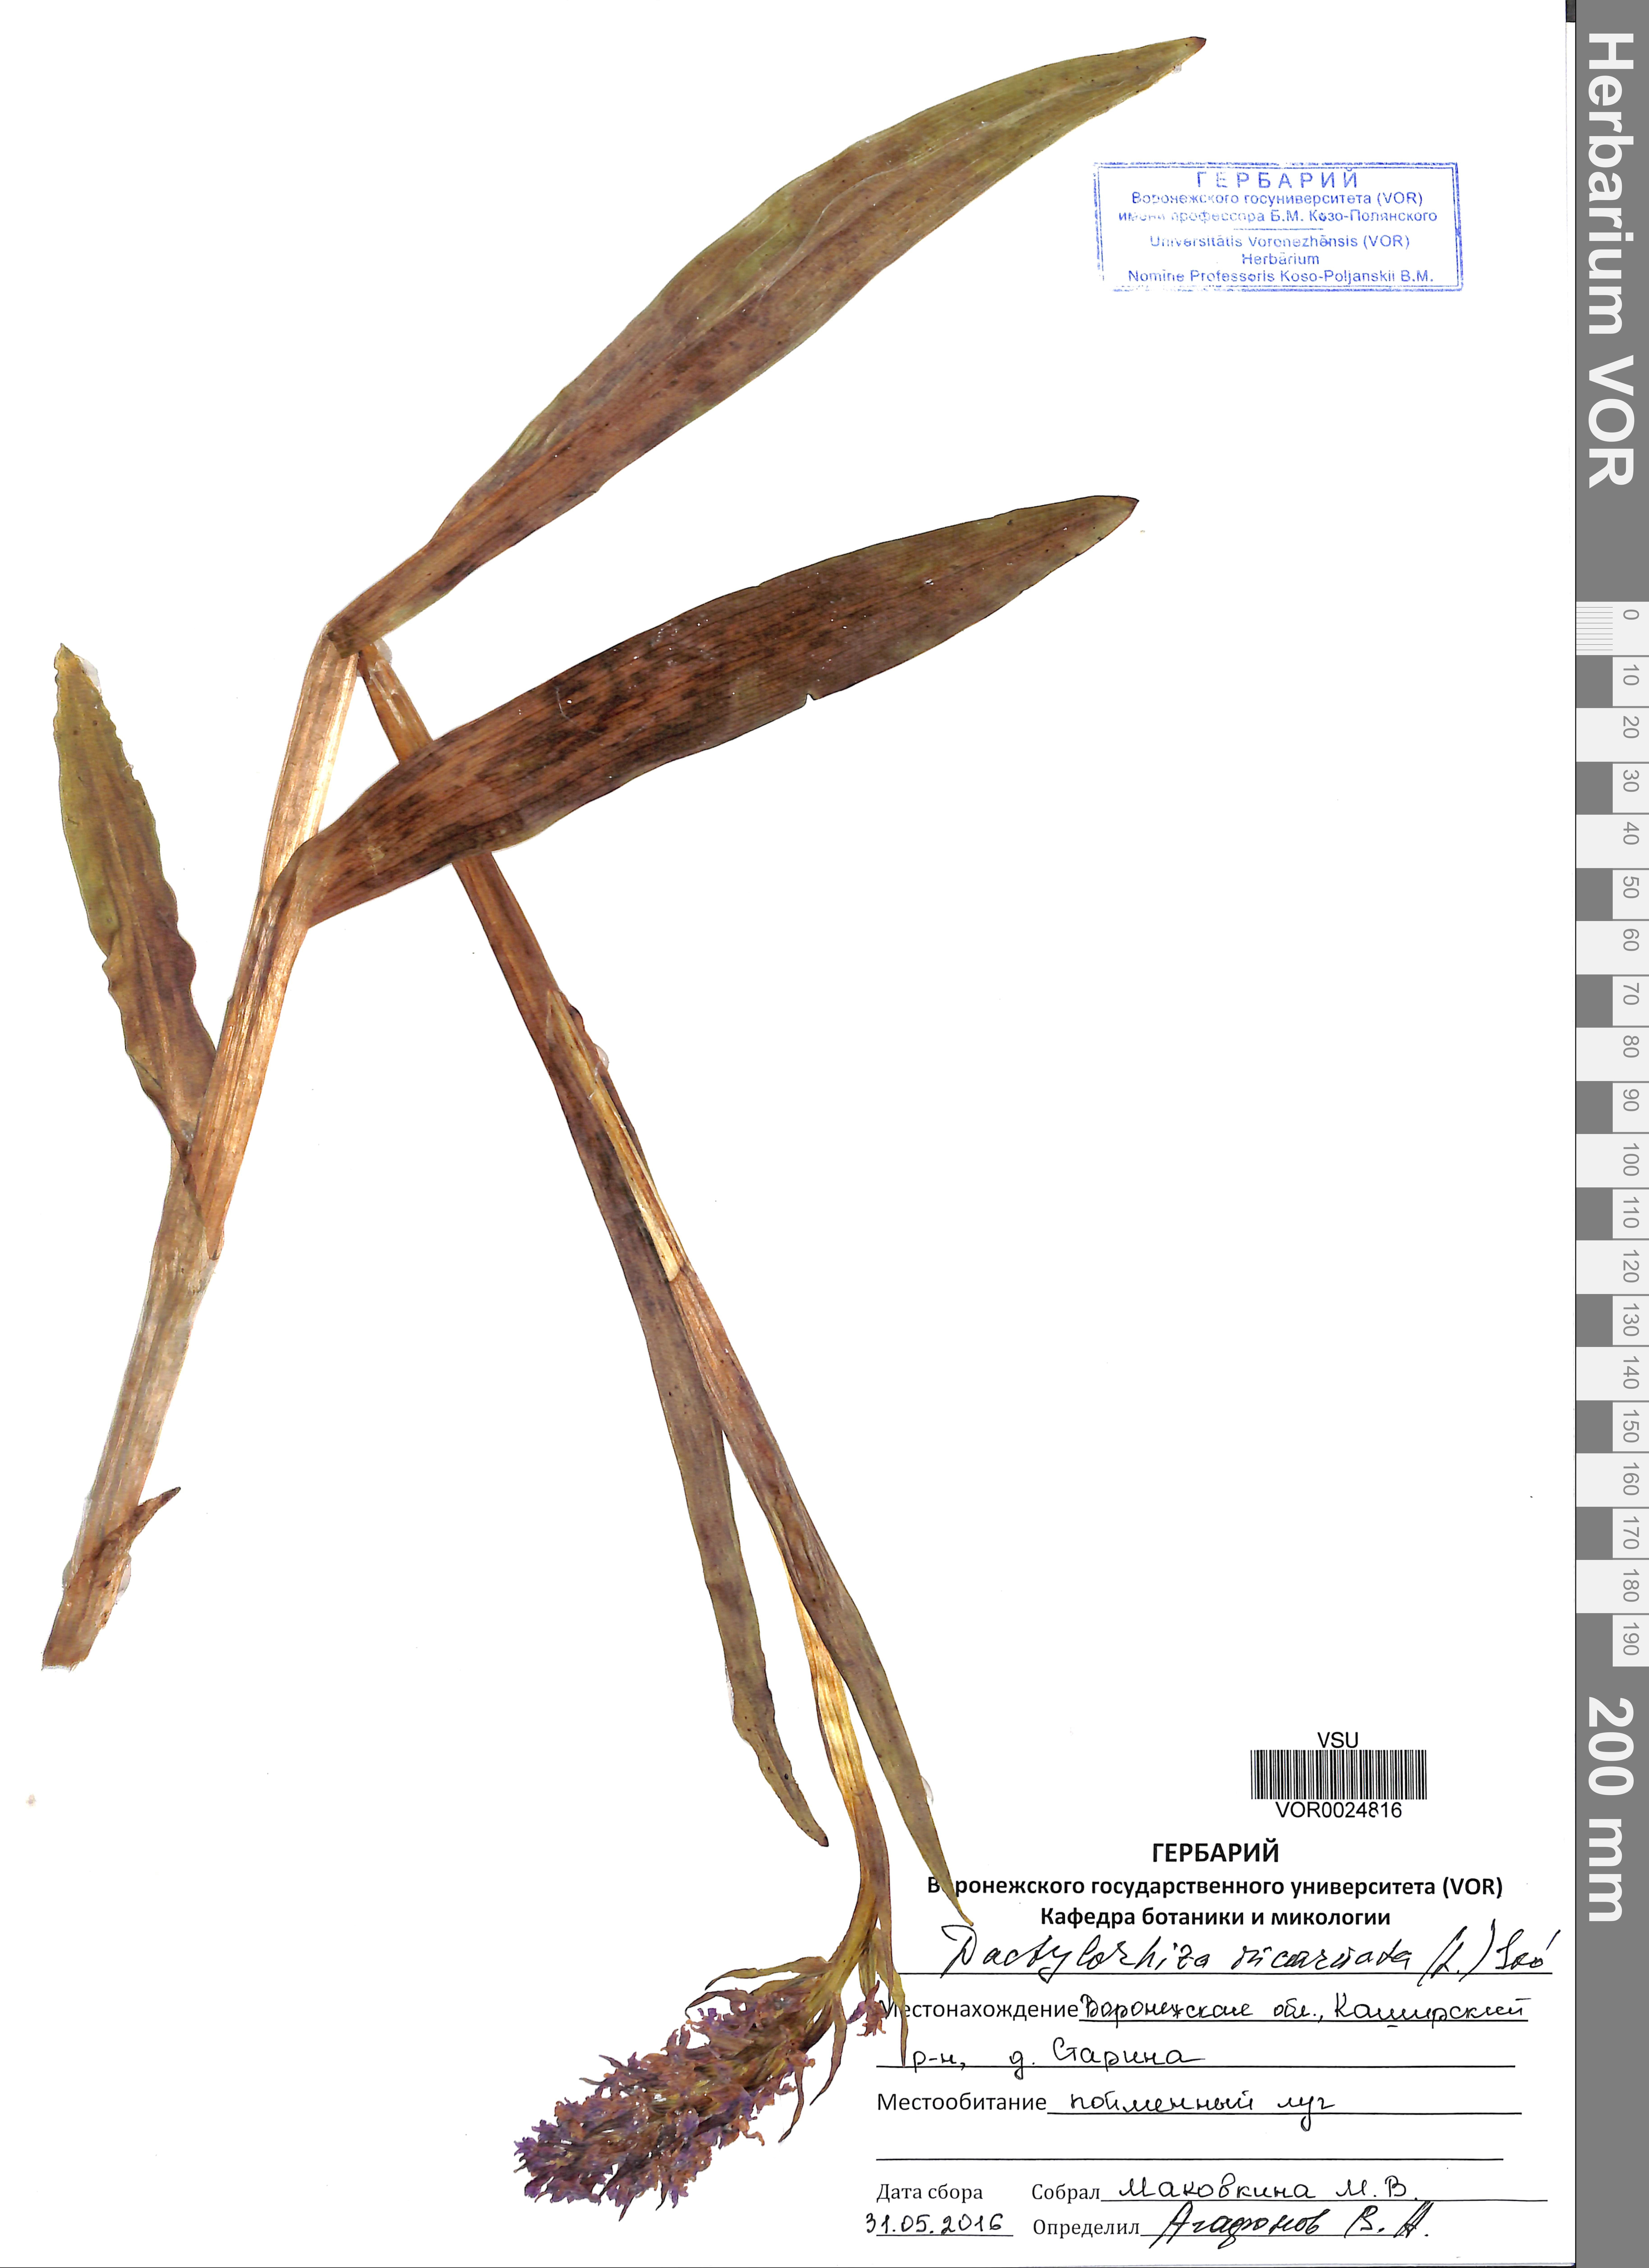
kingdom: Plantae
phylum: Tracheophyta
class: Liliopsida
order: Asparagales
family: Orchidaceae
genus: Dactylorhiza
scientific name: Dactylorhiza incarnata
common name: Early marsh-orchid
